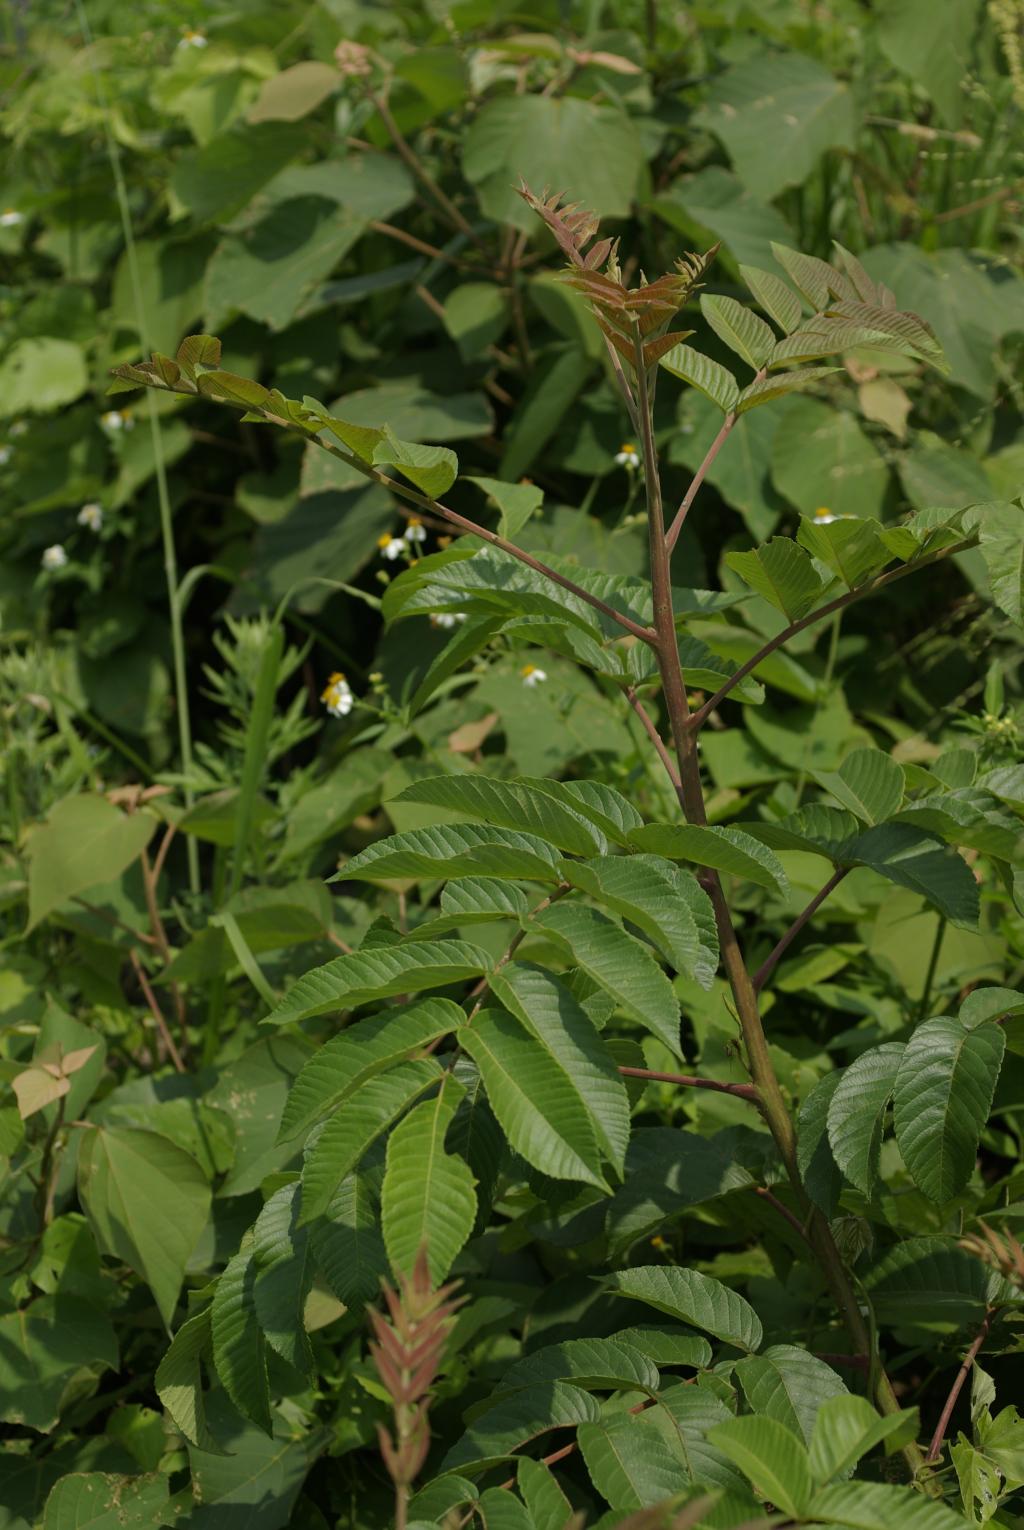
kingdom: Plantae
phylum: Tracheophyta
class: Magnoliopsida
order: Sapindales
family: Anacardiaceae
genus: Rhus
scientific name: Rhus chinensis
